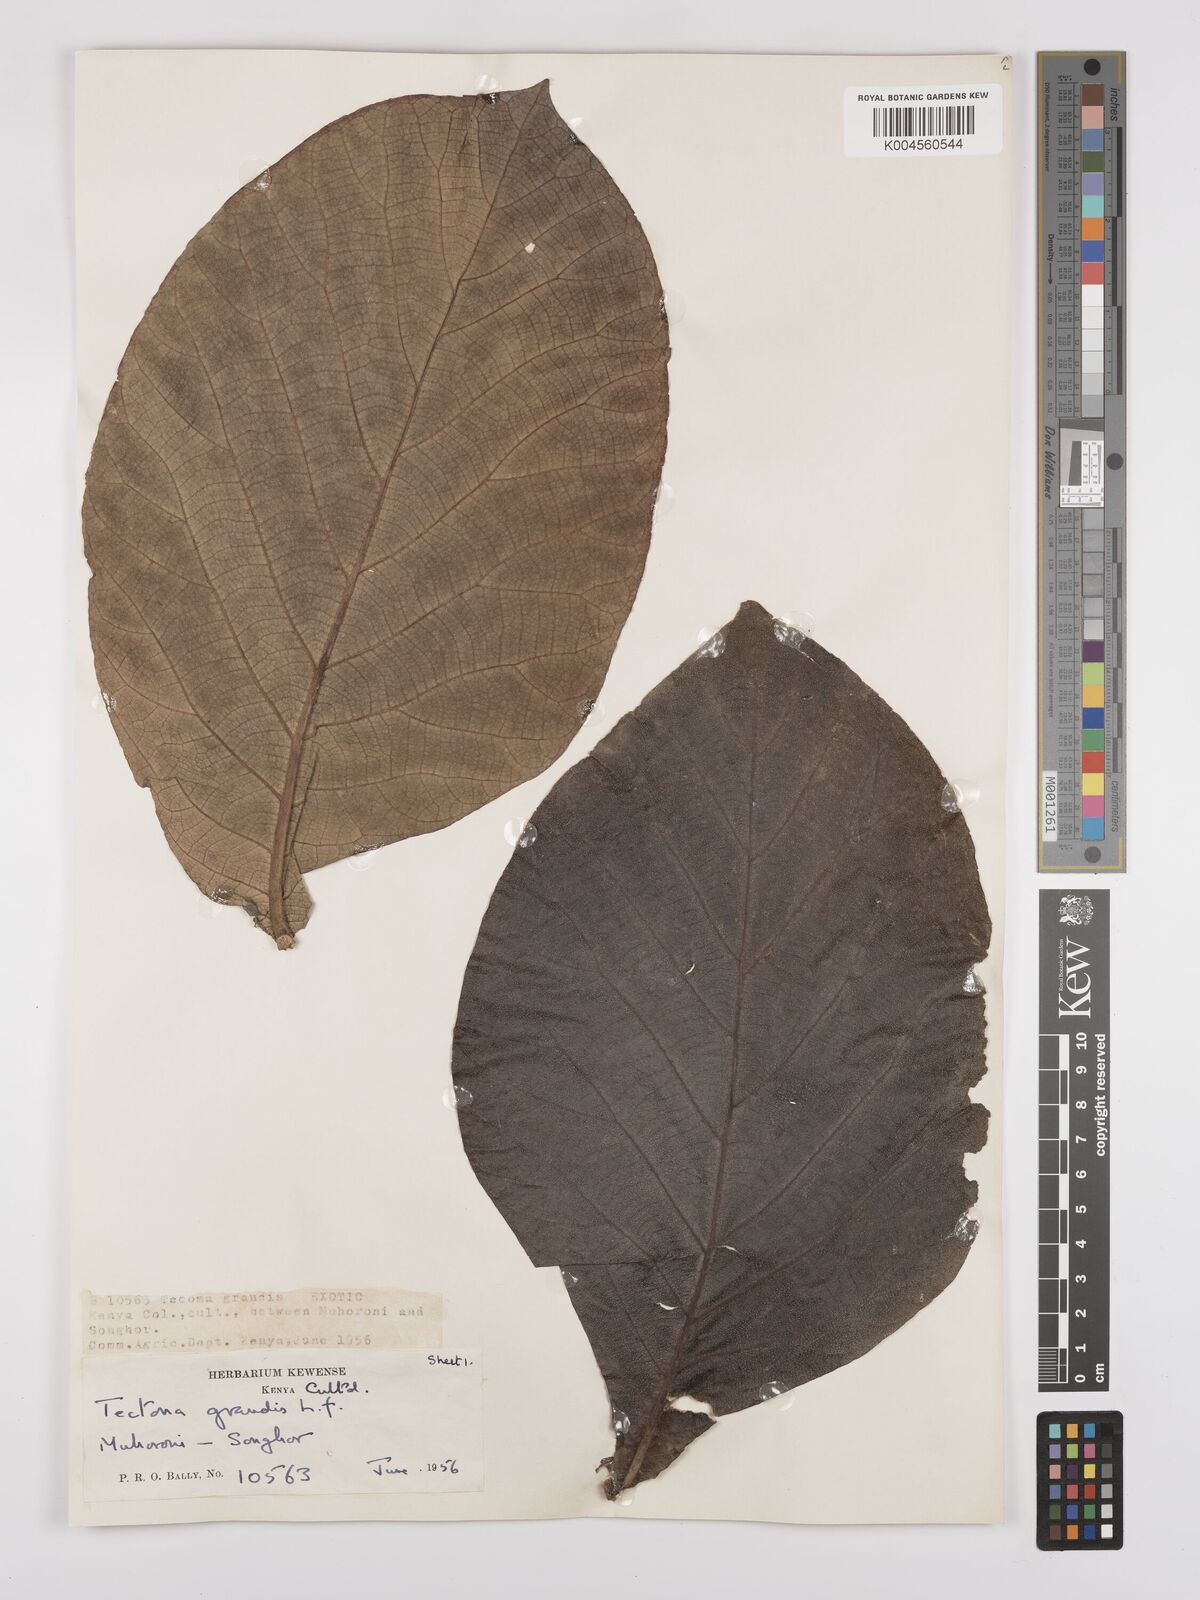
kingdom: Plantae
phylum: Tracheophyta
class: Magnoliopsida
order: Lamiales
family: Lamiaceae
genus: Tectona
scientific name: Tectona grandis
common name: Teak
